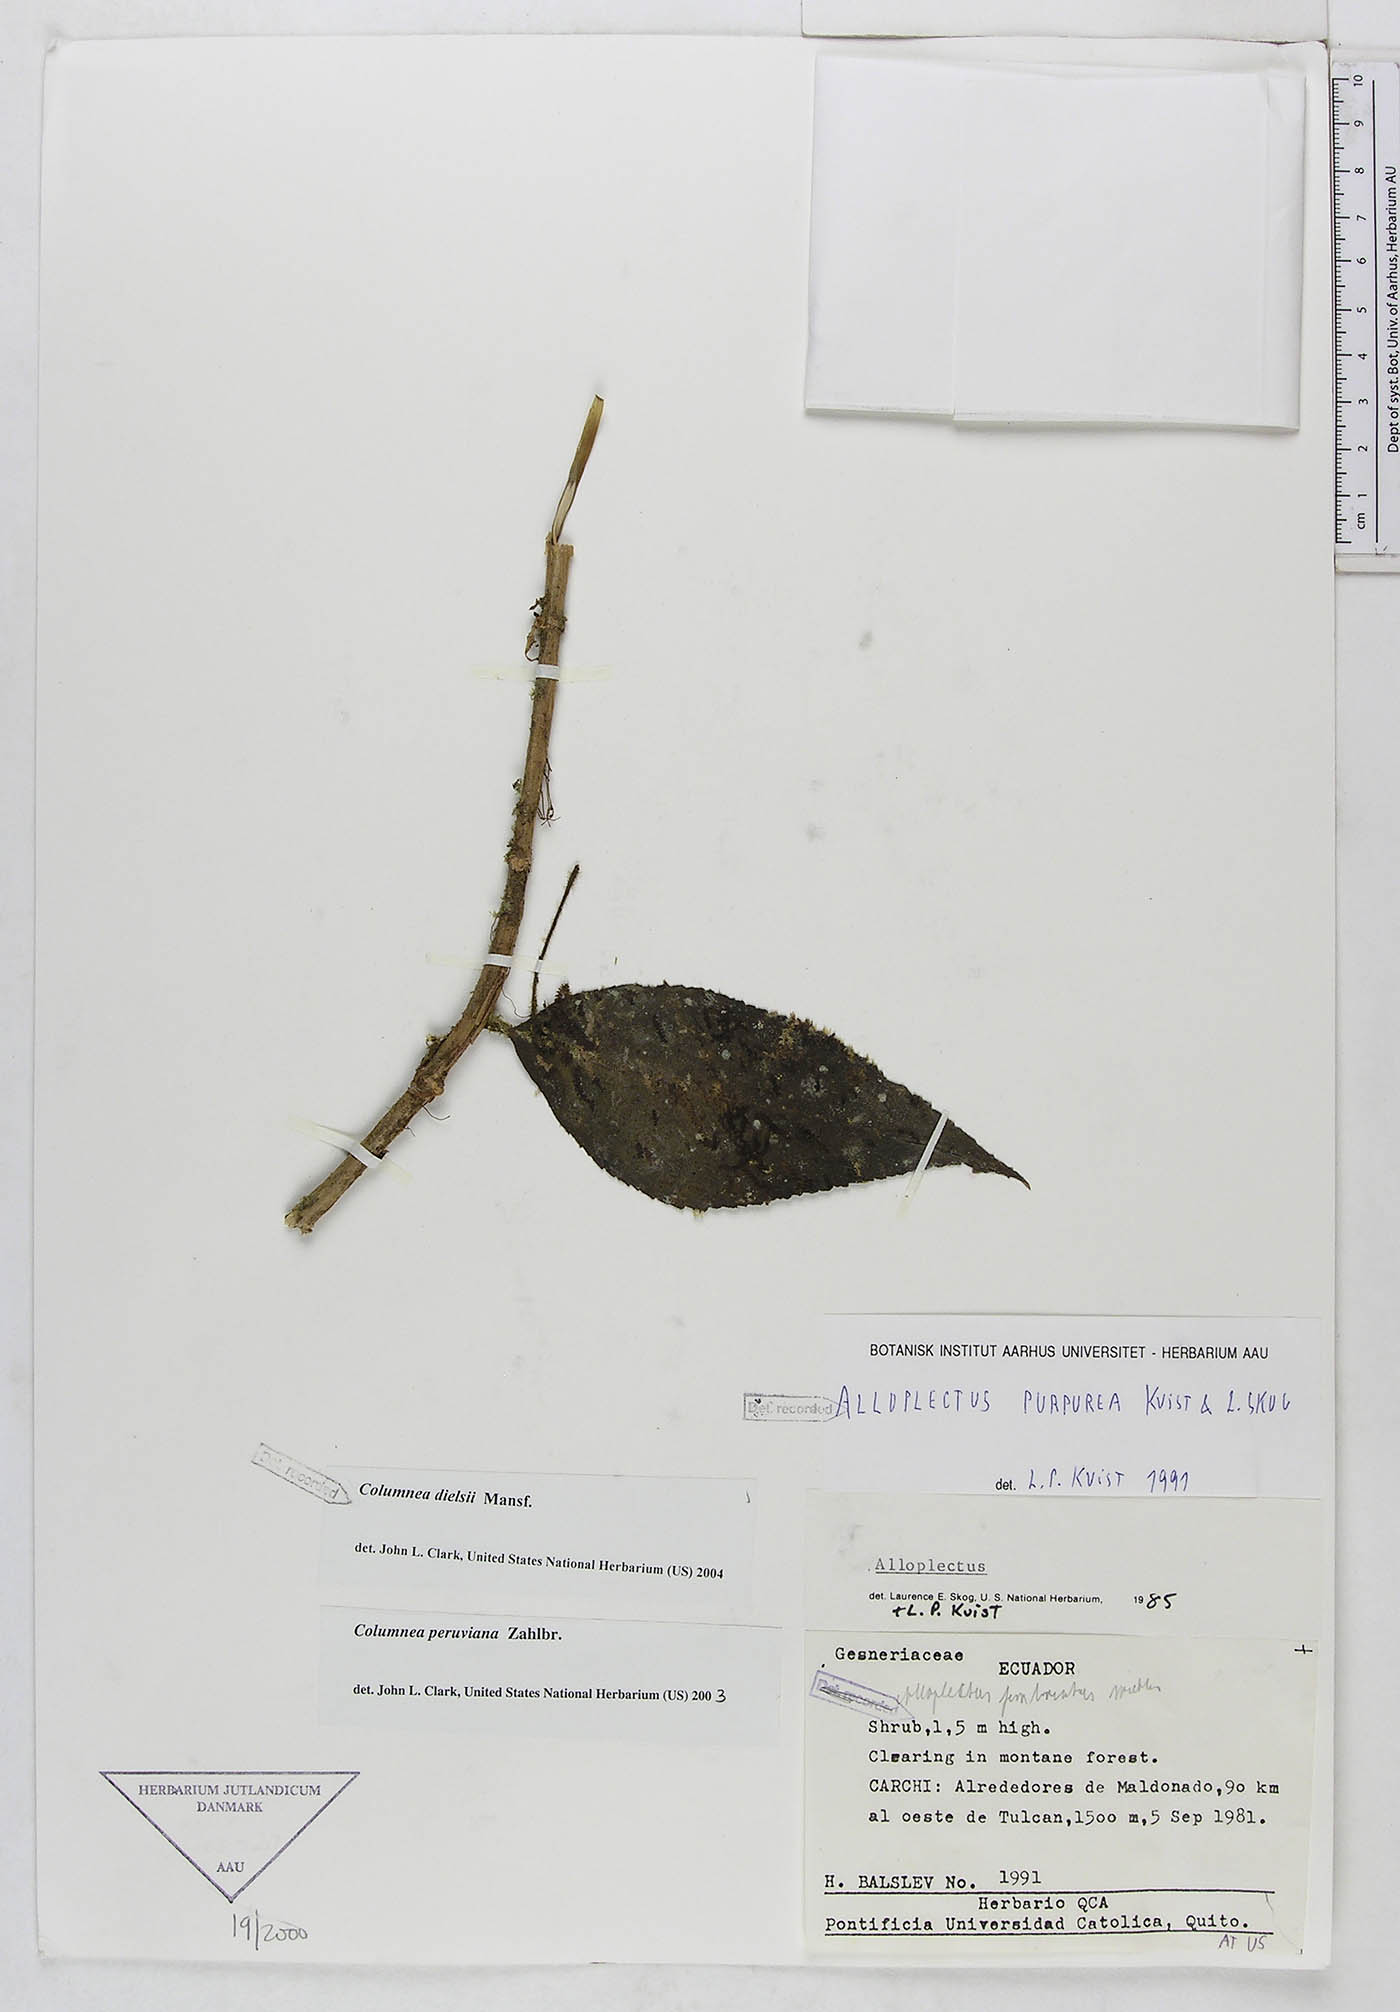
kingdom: Plantae
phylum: Tracheophyta
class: Magnoliopsida
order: Lamiales
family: Gesneriaceae
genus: Columnea
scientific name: Columnea dielsii
